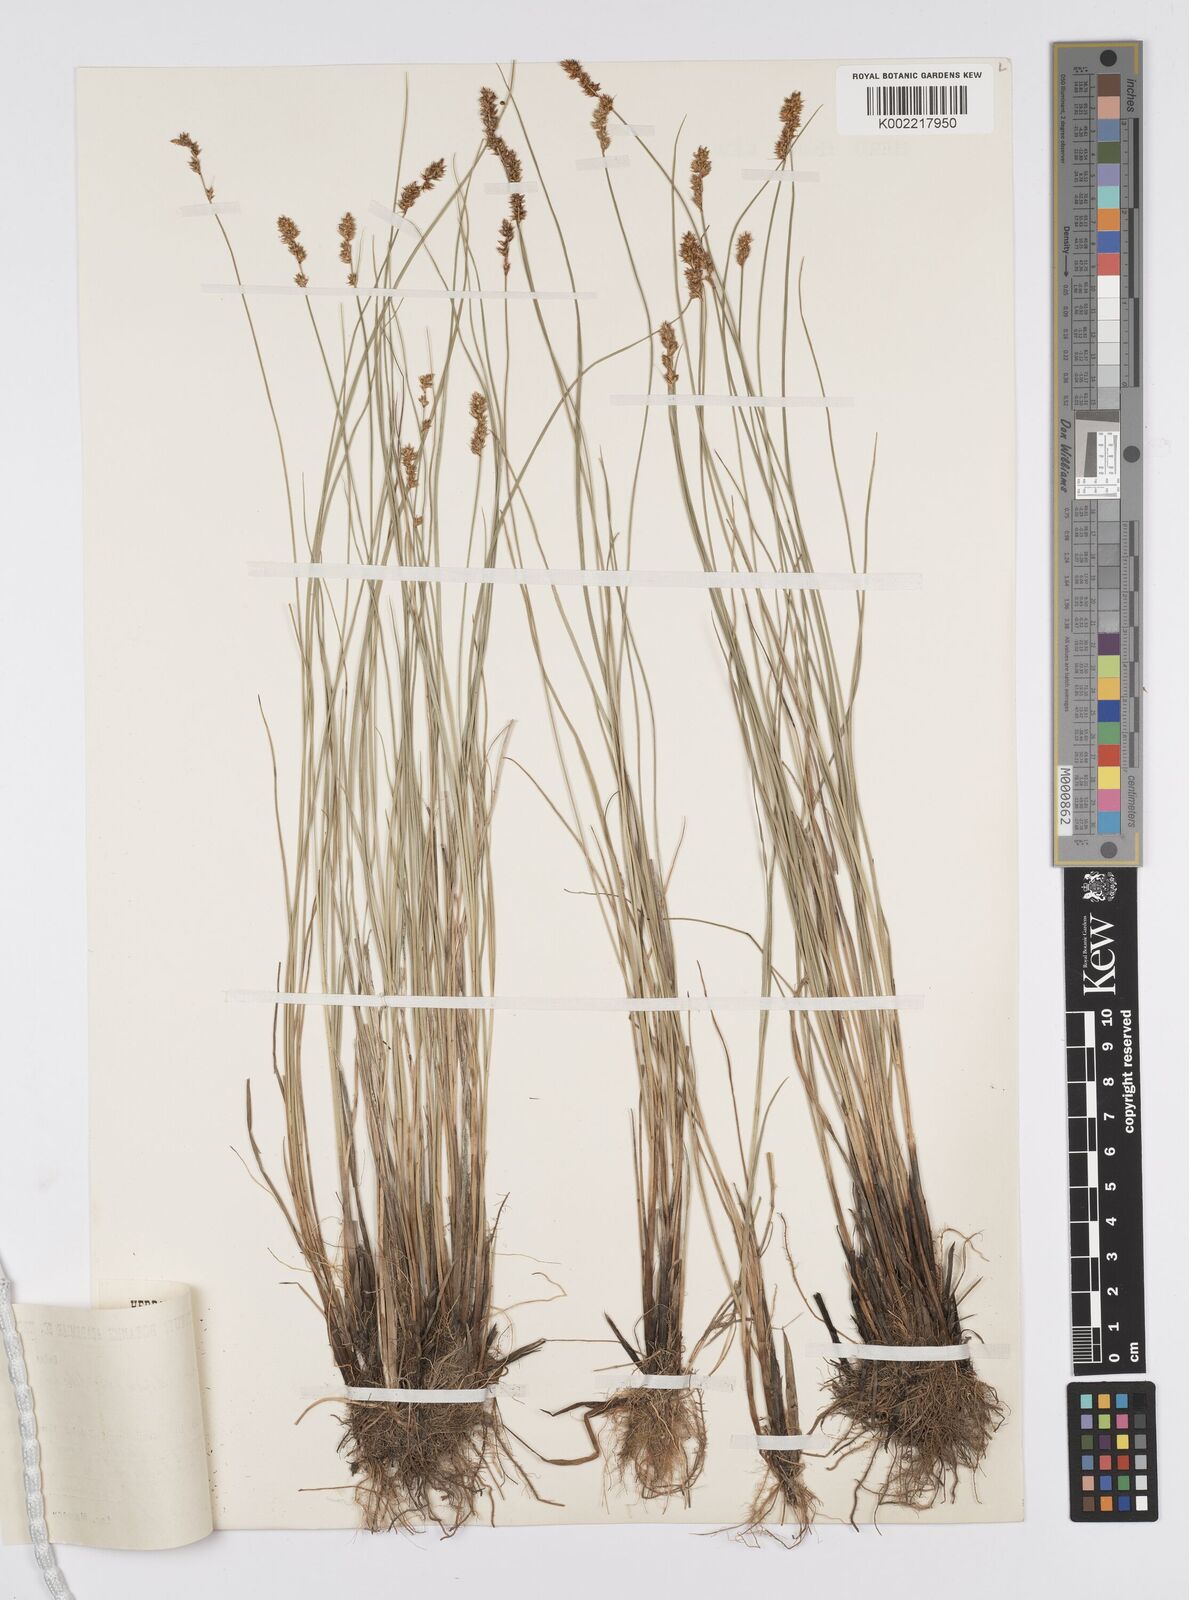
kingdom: Plantae
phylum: Tracheophyta
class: Liliopsida
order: Poales
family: Cyperaceae
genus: Carex
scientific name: Carex diandra
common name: Lesser tussock-sedge
